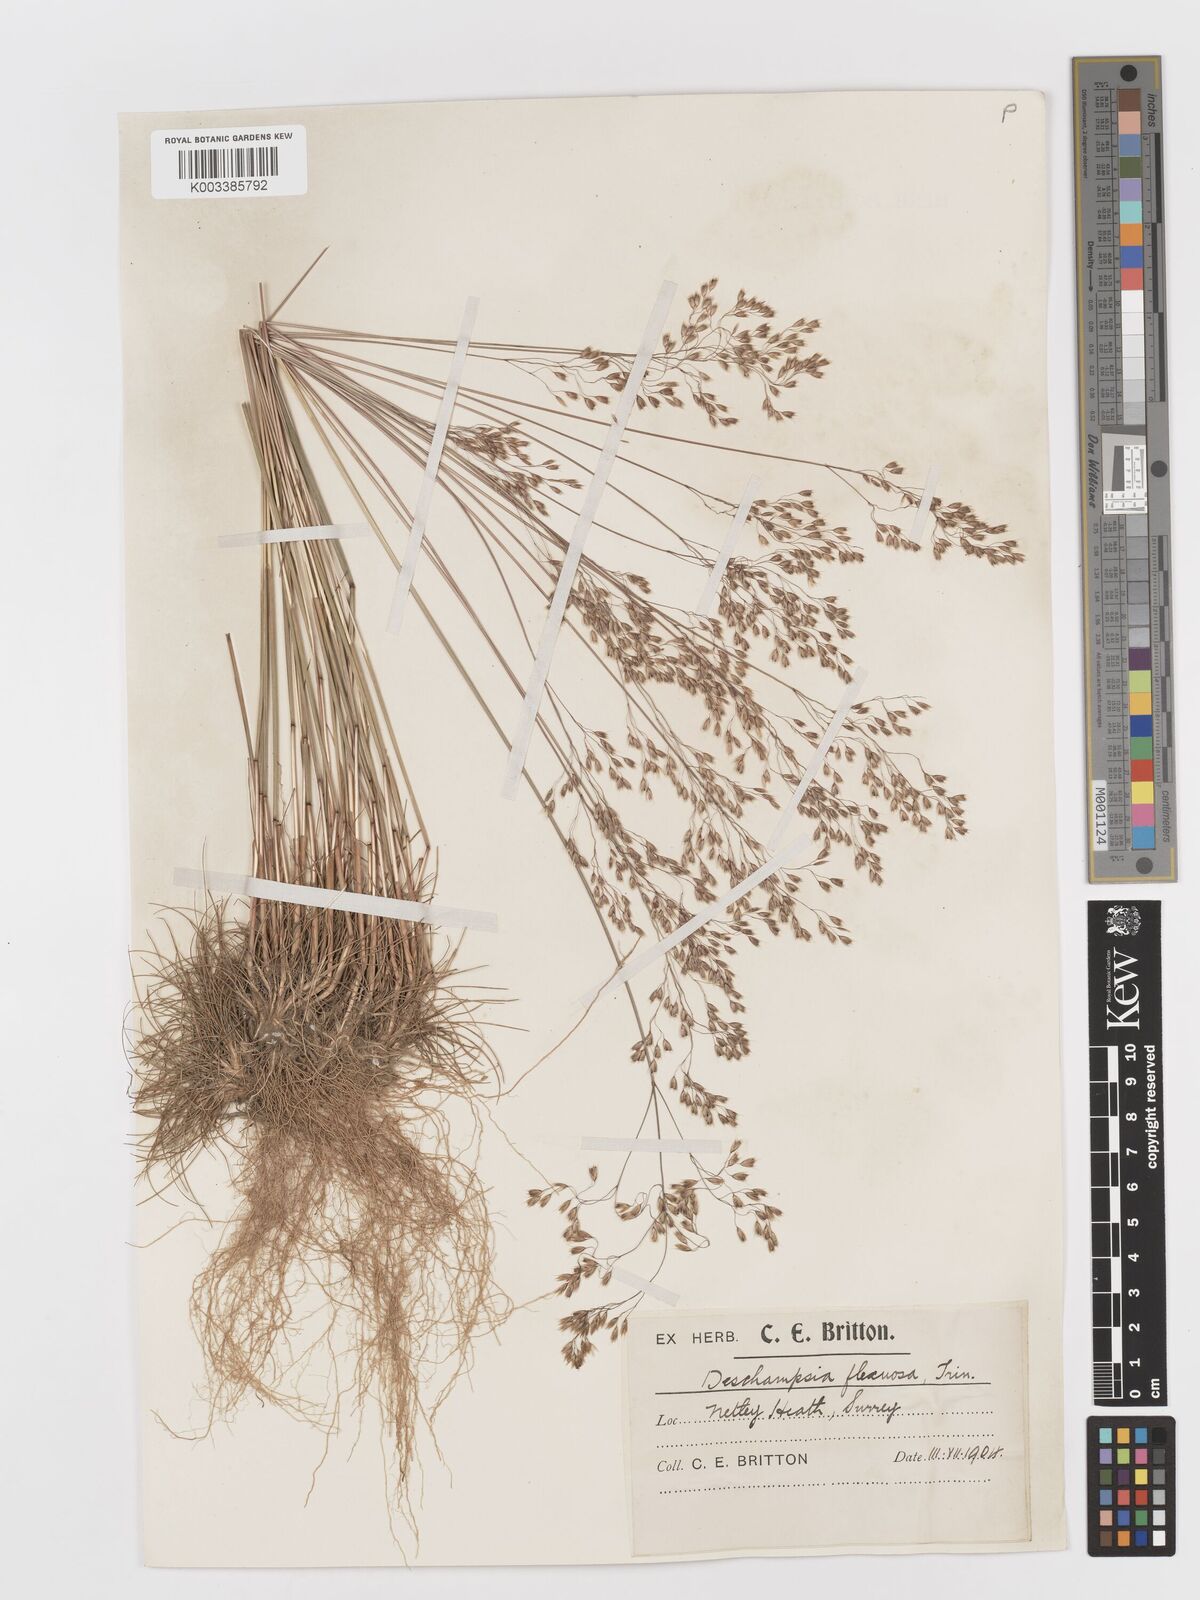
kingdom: Plantae
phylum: Tracheophyta
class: Liliopsida
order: Poales
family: Poaceae
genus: Avenella
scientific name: Avenella flexuosa
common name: Wavy hairgrass
